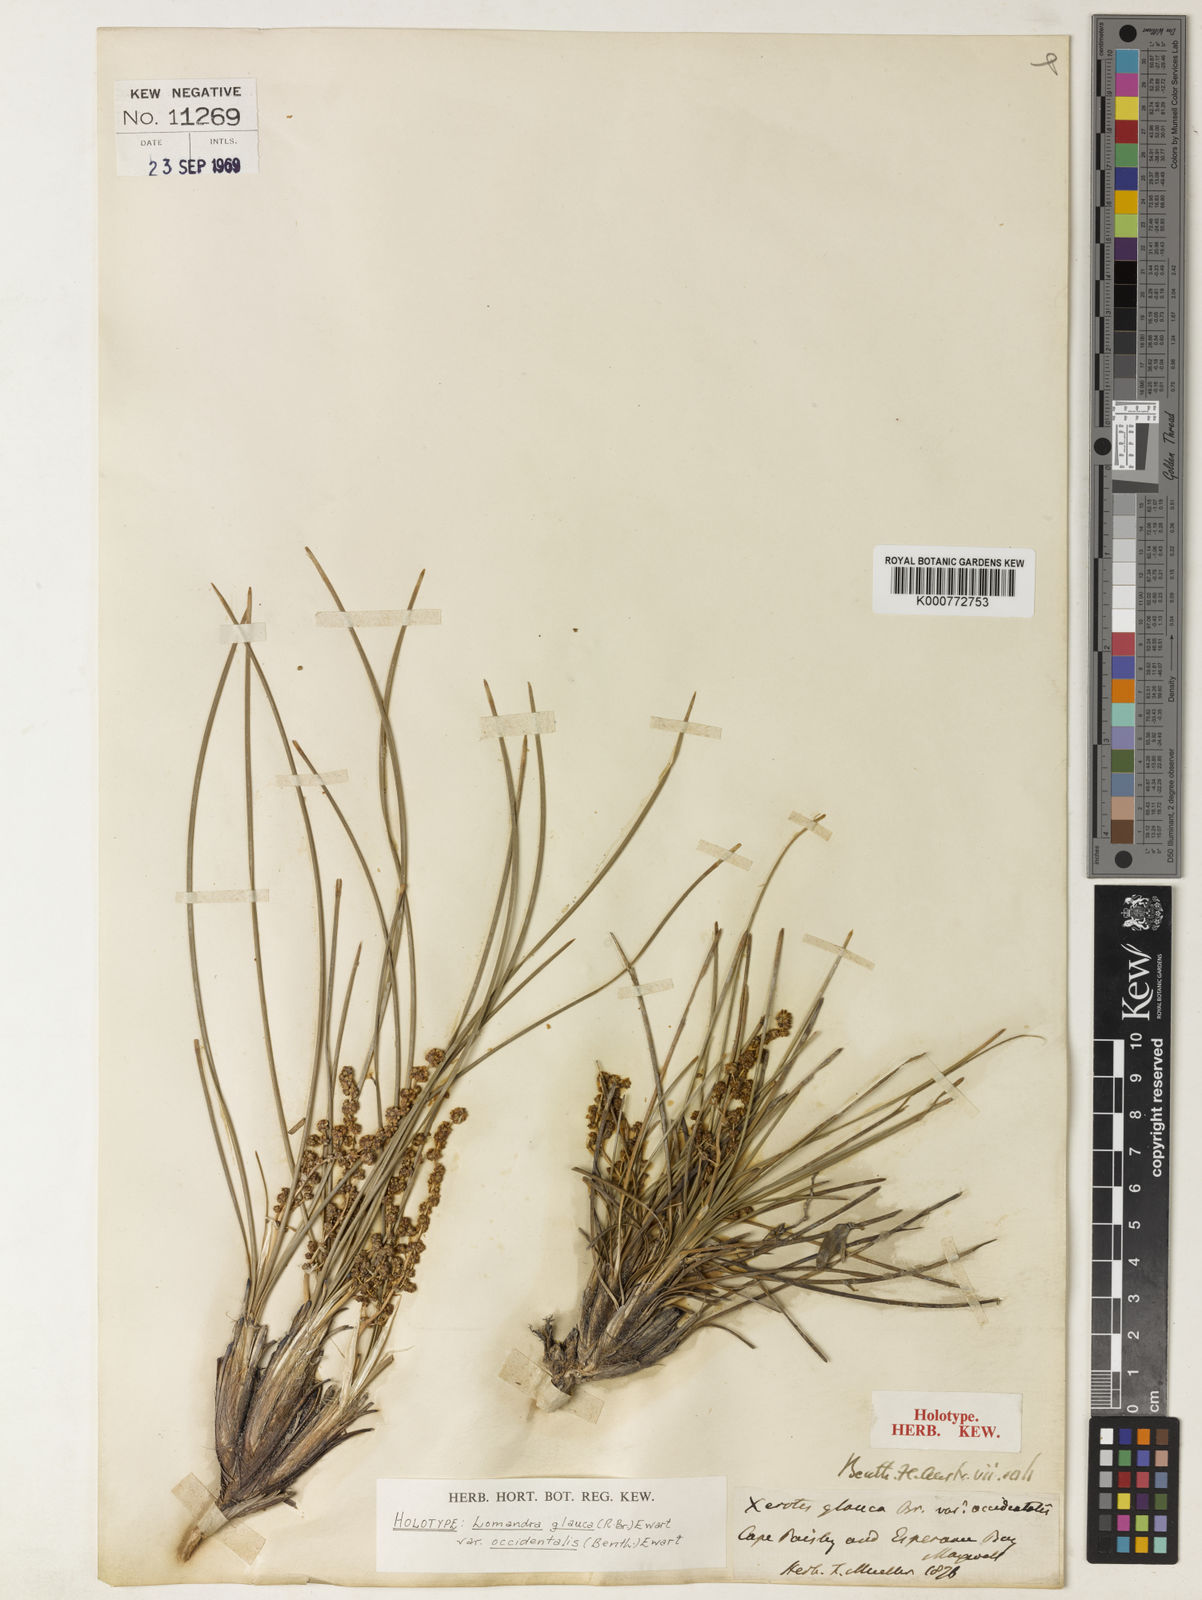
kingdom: Plantae
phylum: Tracheophyta
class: Liliopsida
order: Asparagales
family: Asparagaceae
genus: Lomandra
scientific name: Lomandra glauca
